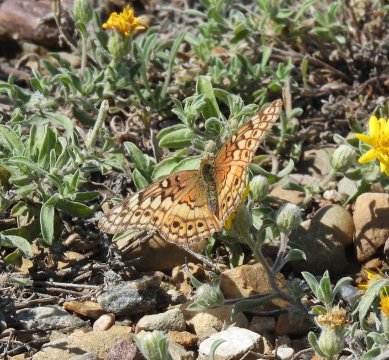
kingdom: Animalia
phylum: Arthropoda
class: Insecta
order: Lepidoptera
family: Nymphalidae
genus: Euptoieta
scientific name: Euptoieta claudia
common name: Variegated Fritillary
